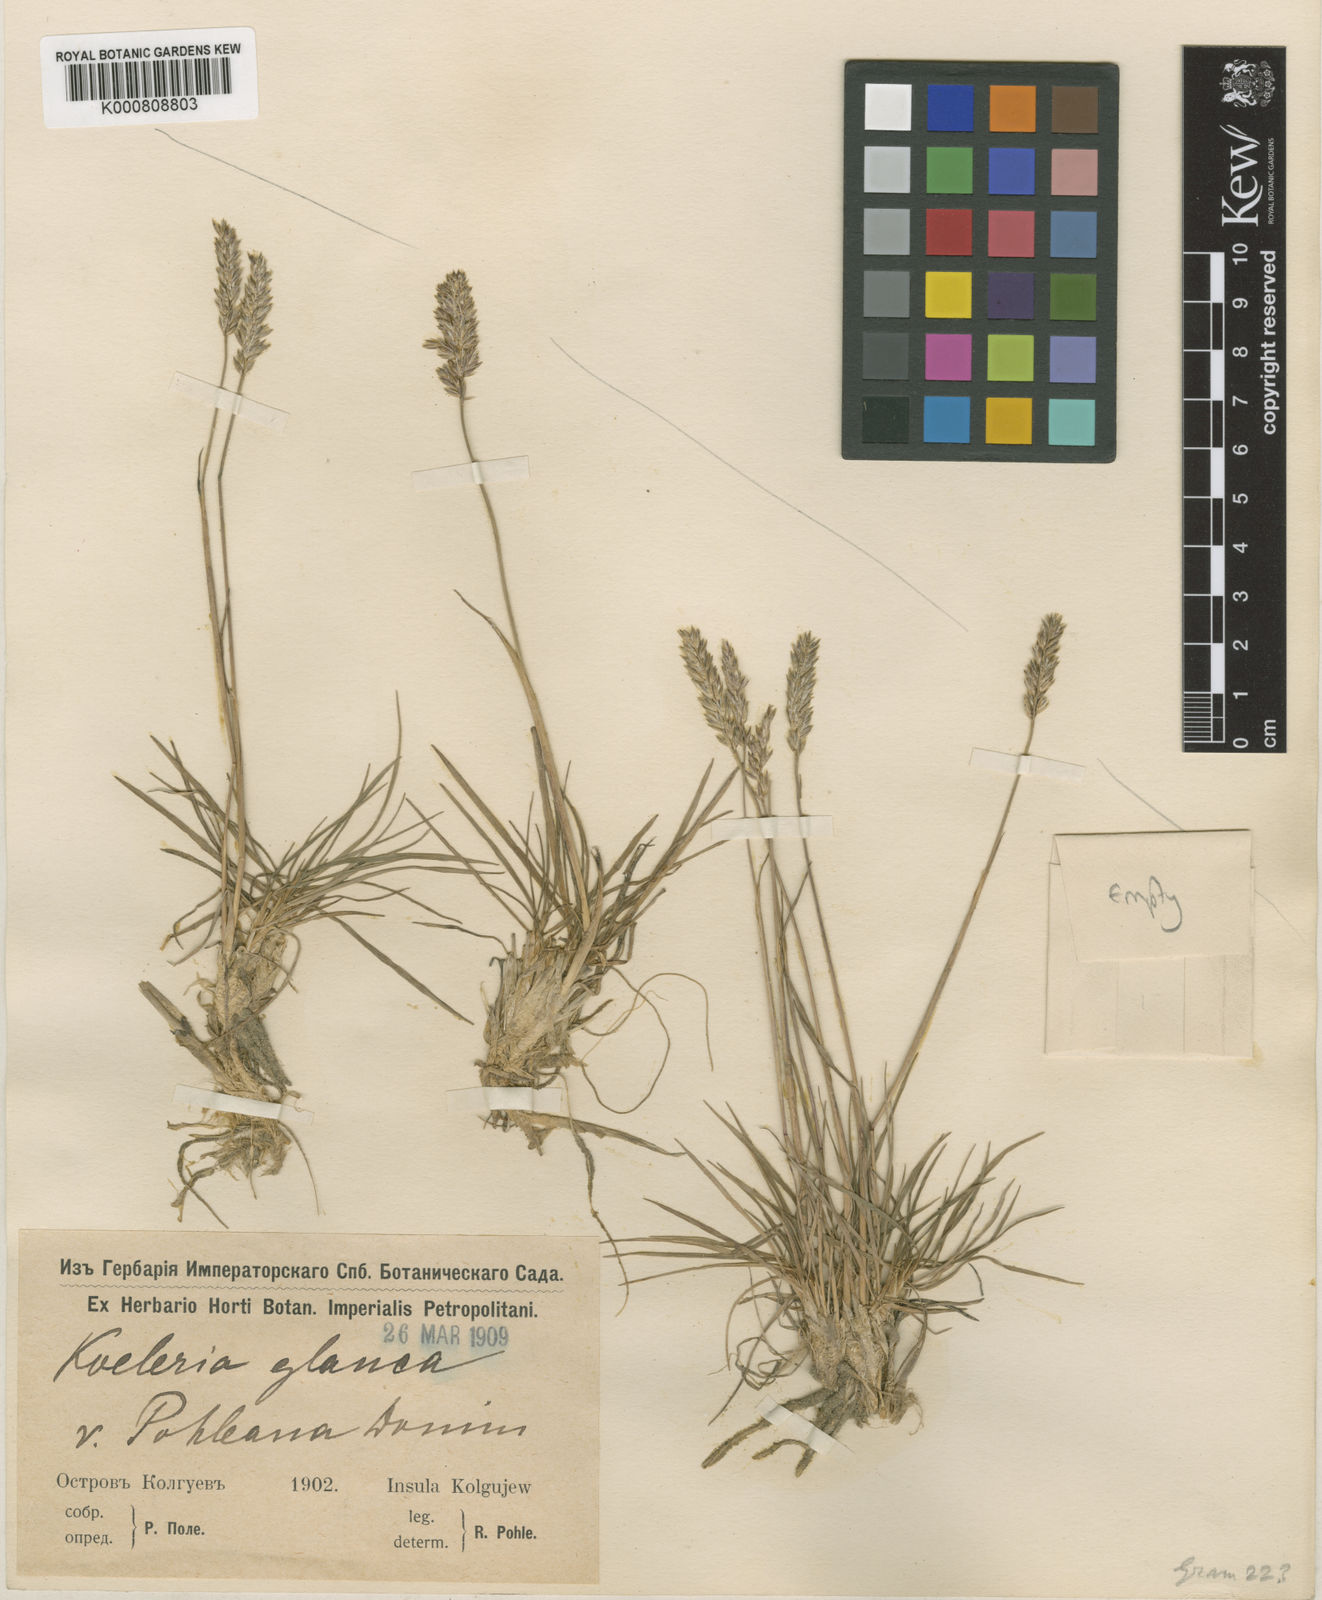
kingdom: Plantae
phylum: Tracheophyta
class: Liliopsida
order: Poales
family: Poaceae
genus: Koeleria
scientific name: Koeleria glauca
